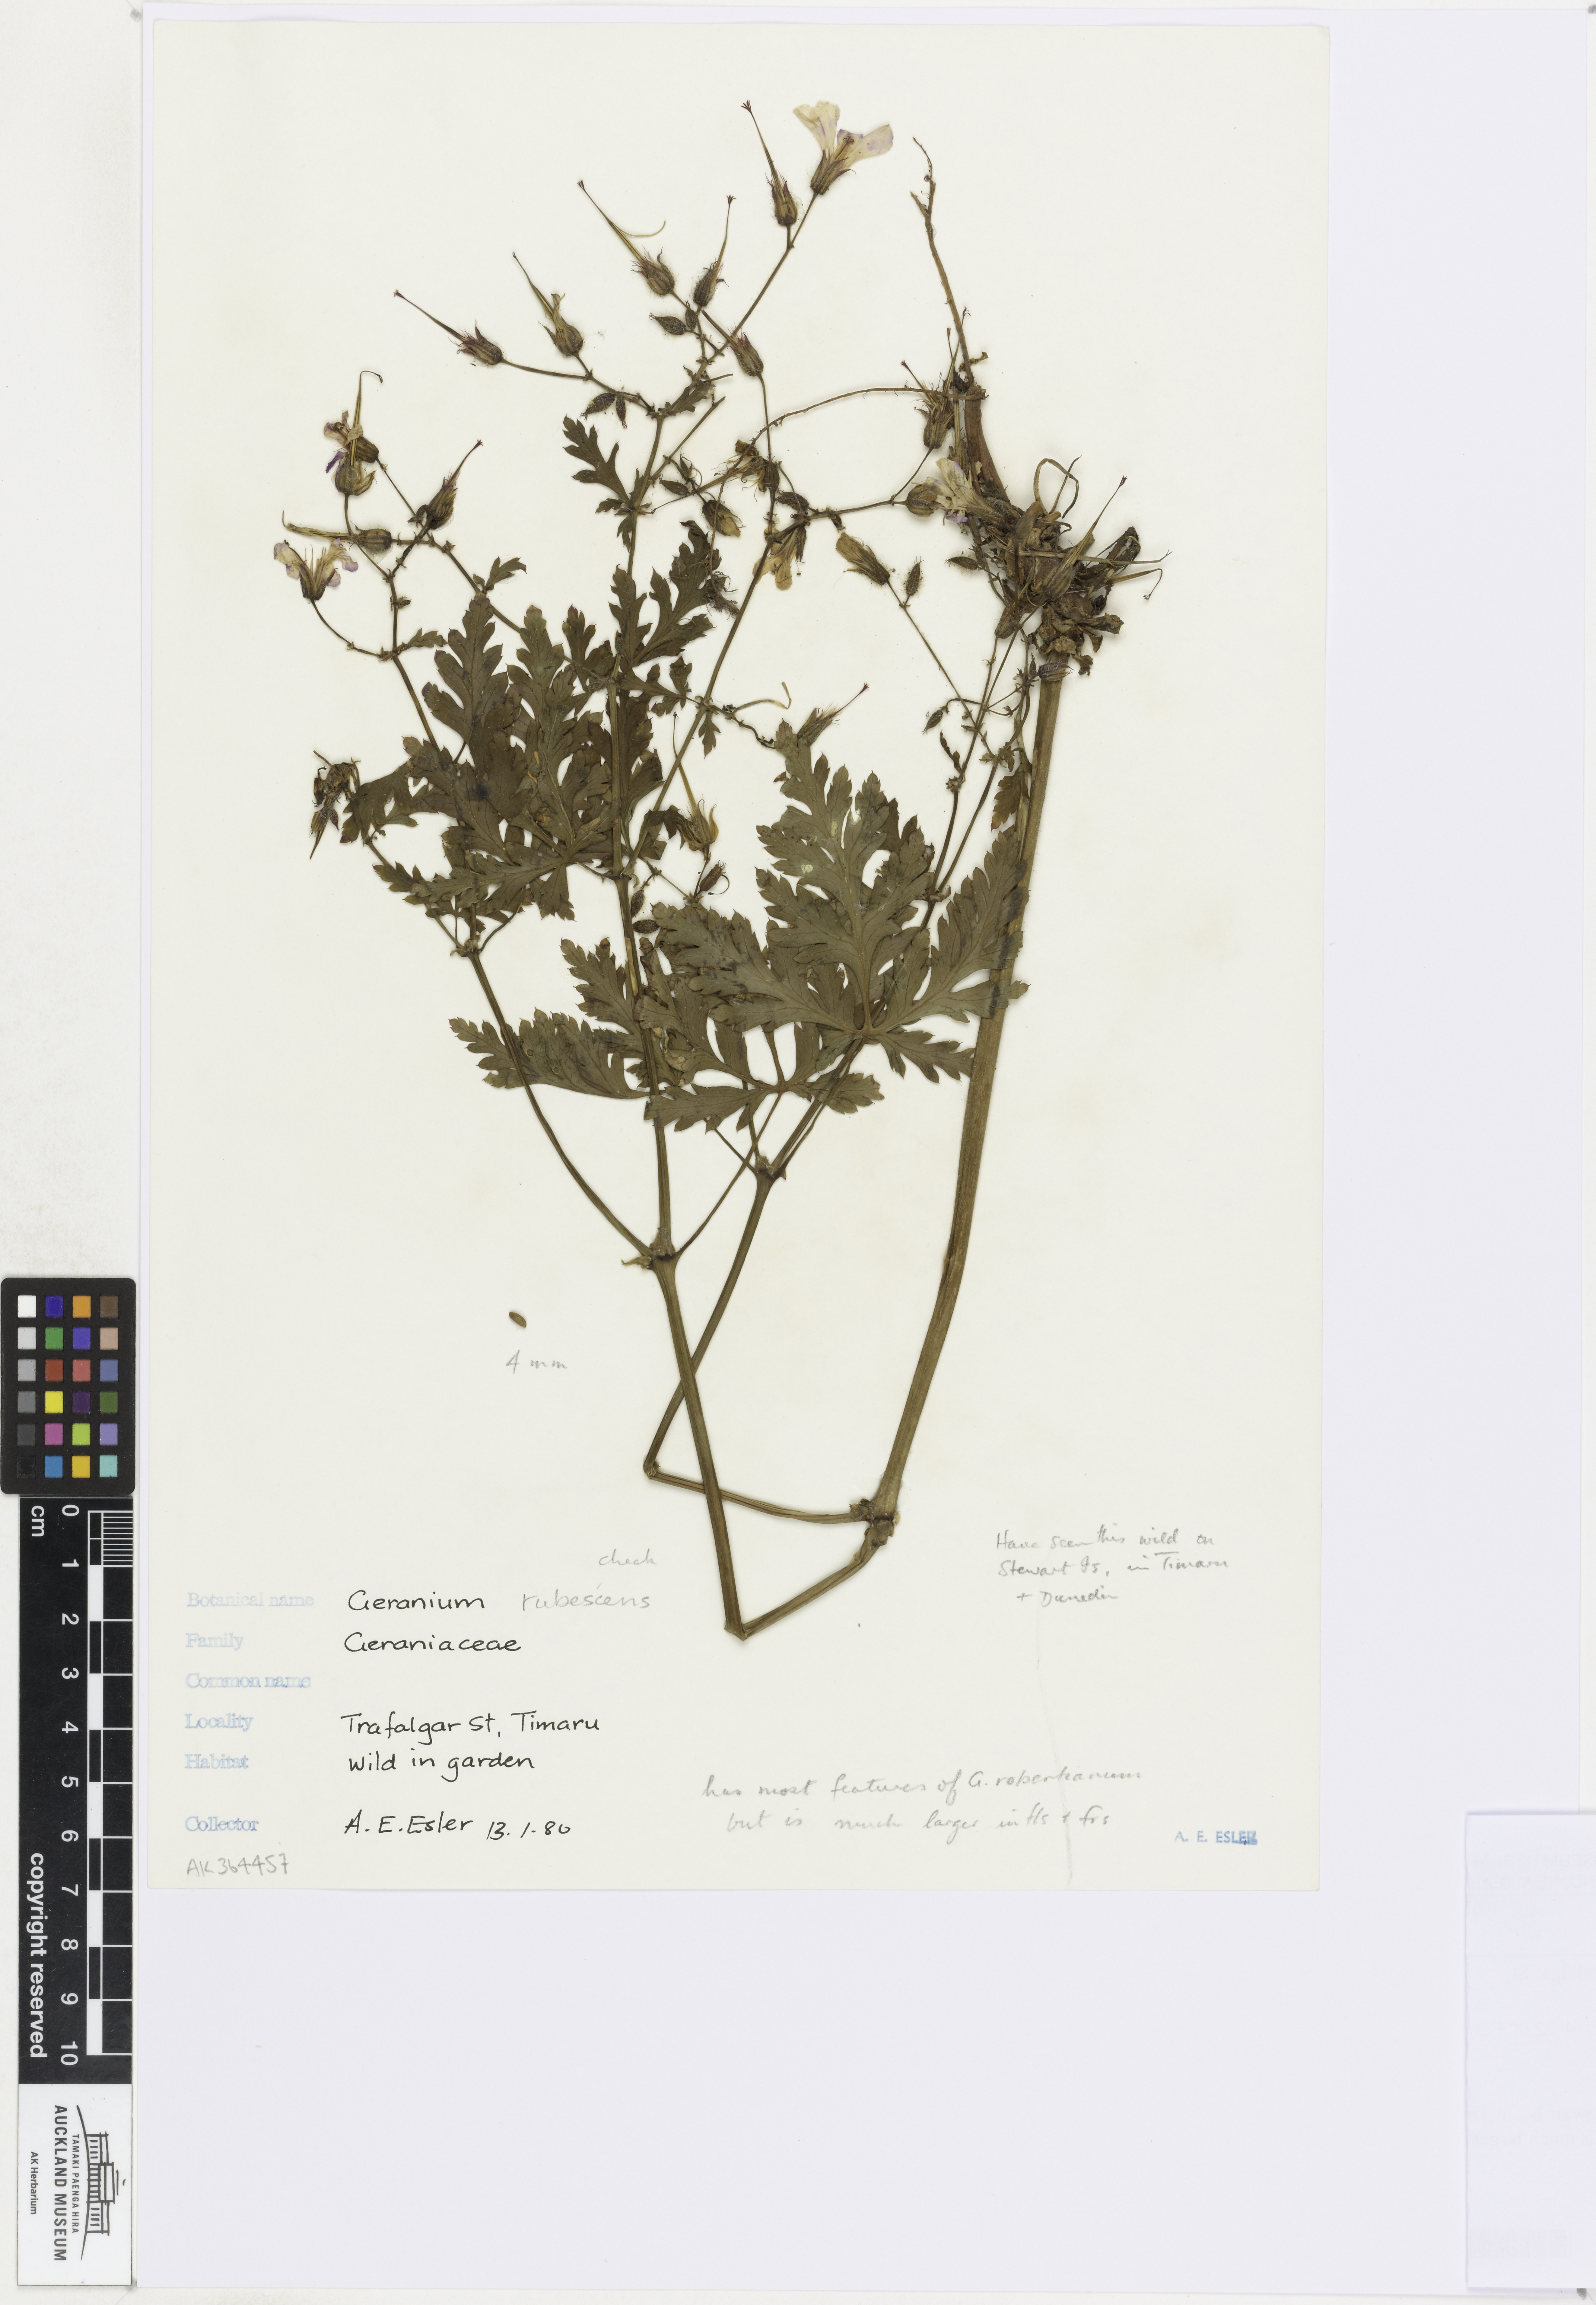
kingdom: Plantae
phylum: Tracheophyta
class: Magnoliopsida
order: Geraniales
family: Geraniaceae
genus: Geranium
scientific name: Geranium yeoi
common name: Greater herb robert
